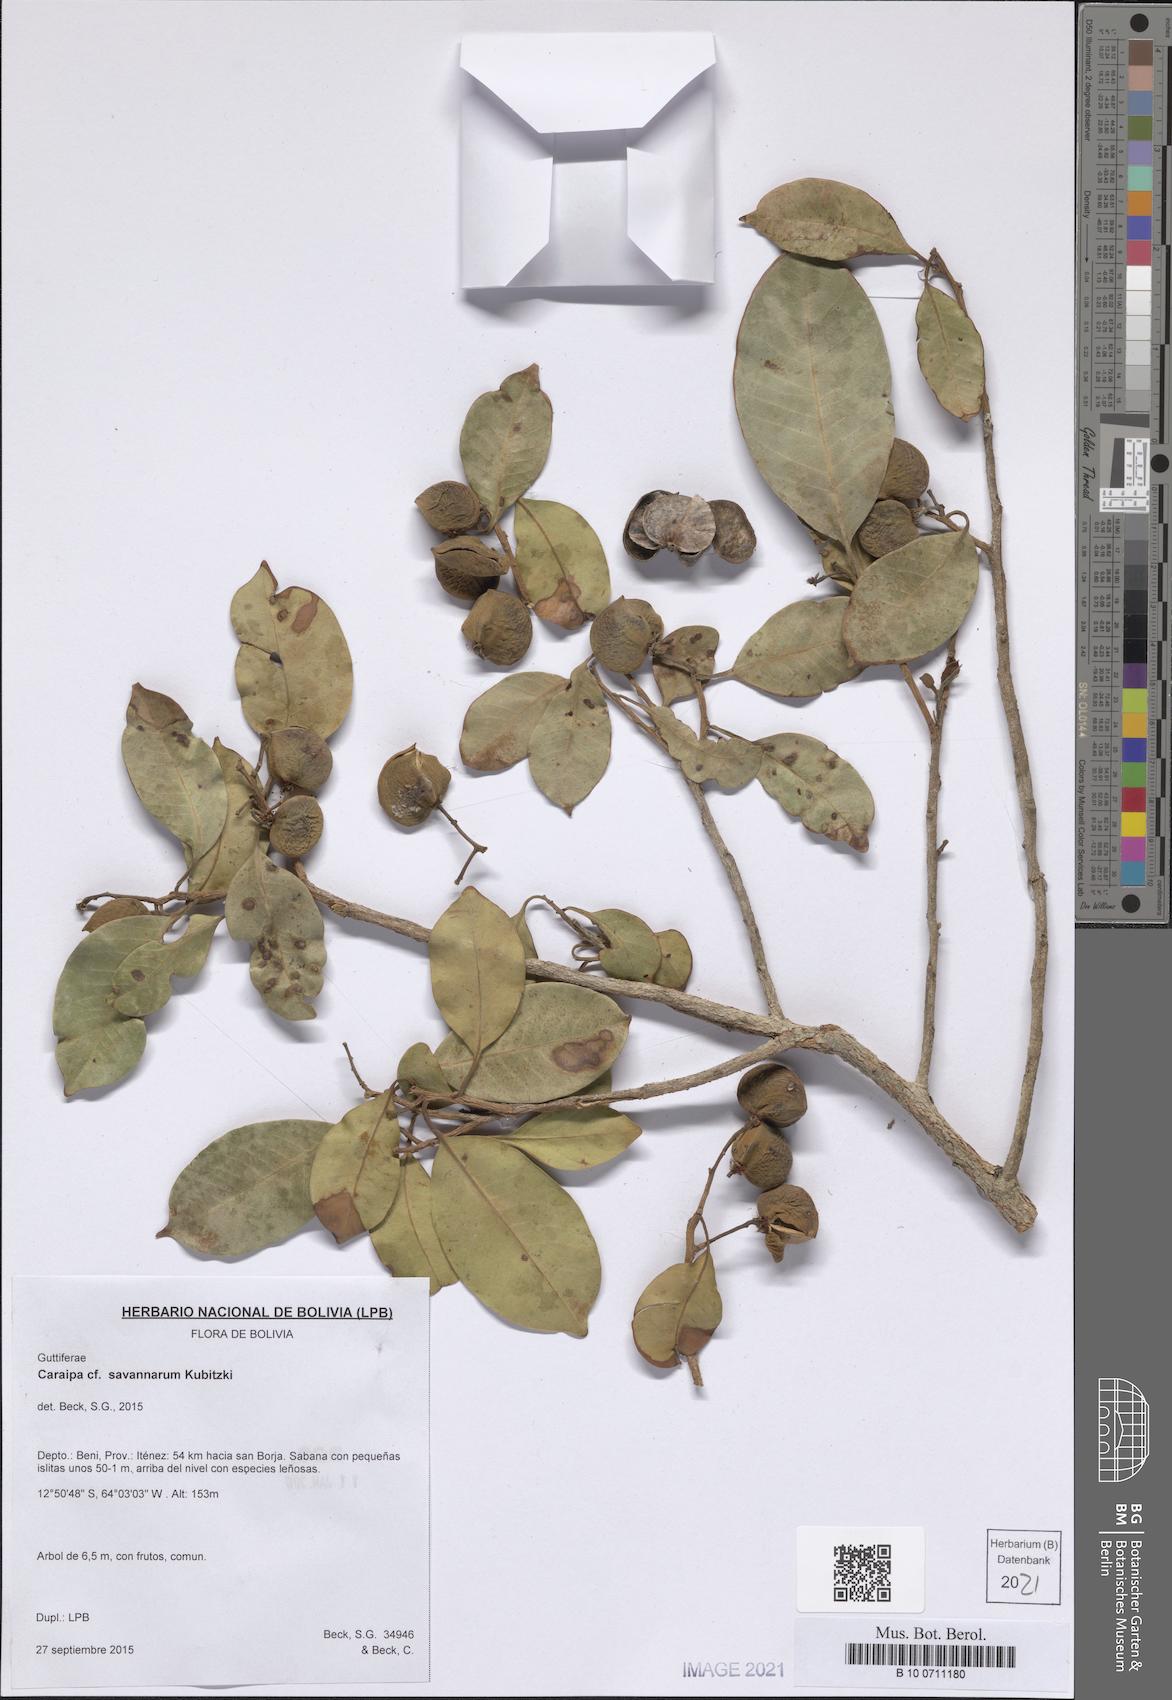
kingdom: Plantae
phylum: Tracheophyta
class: Magnoliopsida
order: Malpighiales
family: Calophyllaceae
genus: Caraipa
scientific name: Caraipa savannarum
